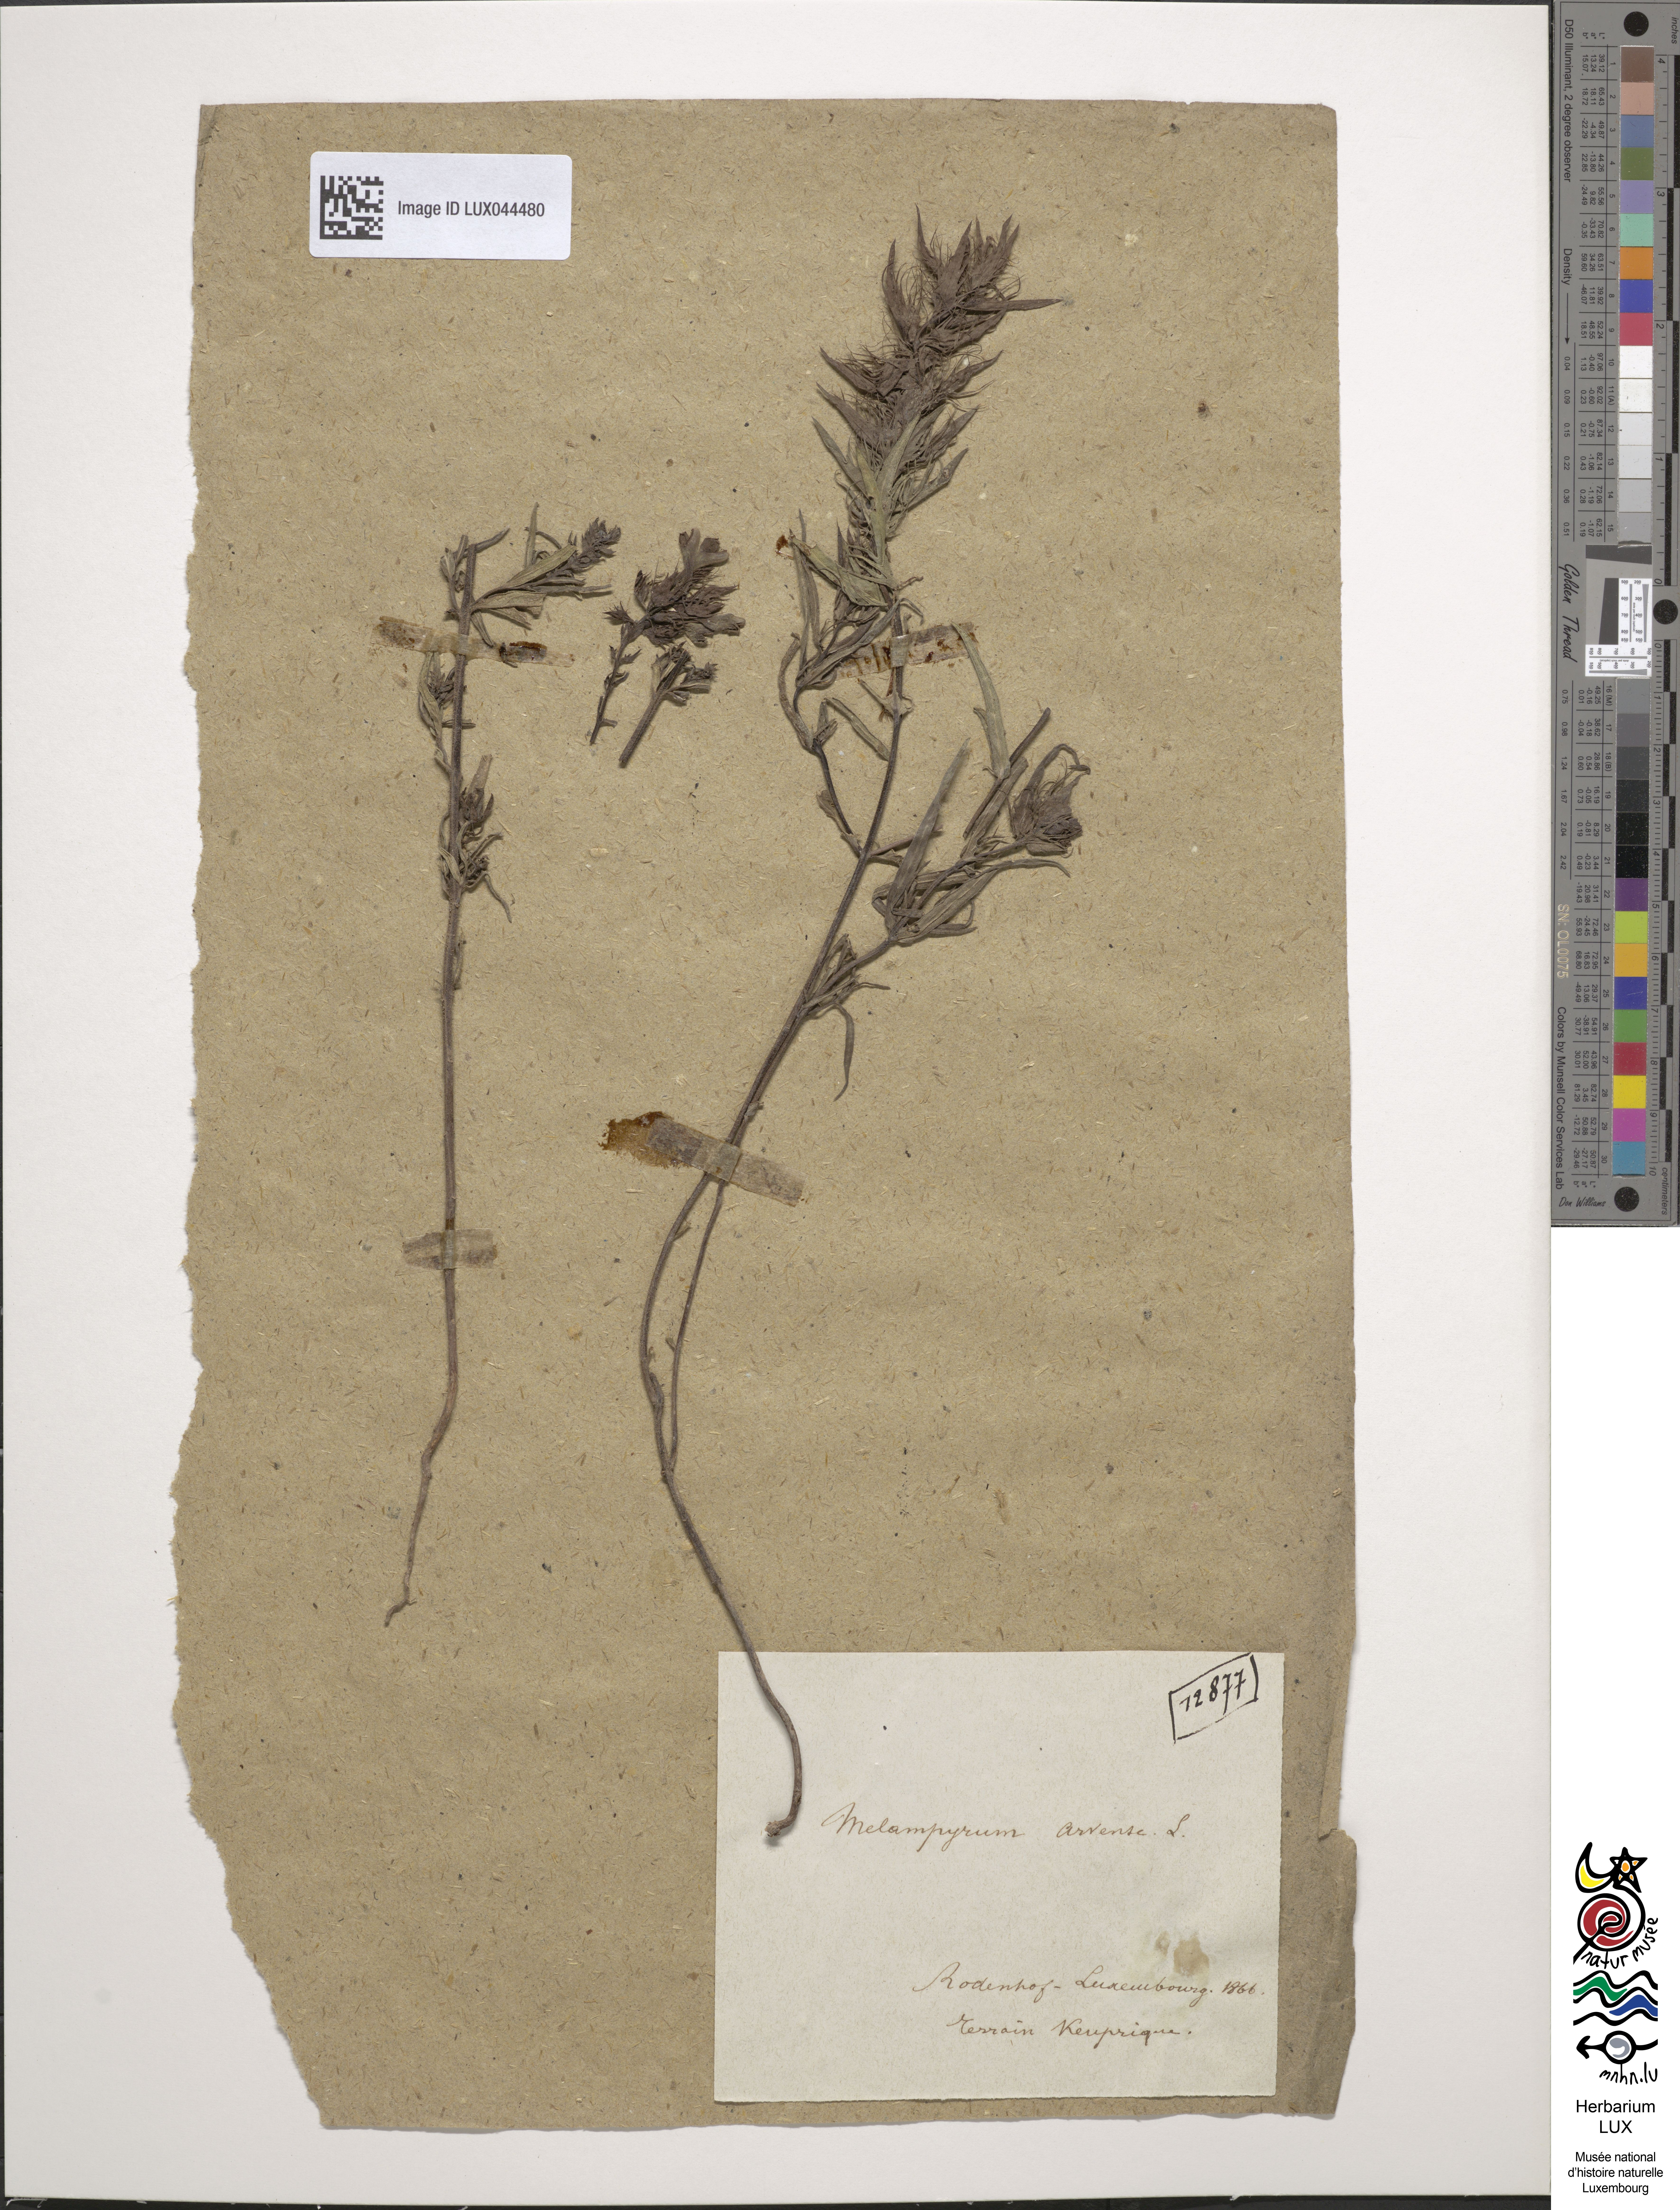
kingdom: Plantae
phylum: Tracheophyta
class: Magnoliopsida
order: Lamiales
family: Orobanchaceae
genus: Melampyrum
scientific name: Melampyrum arvense
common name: Field cow-wheat
